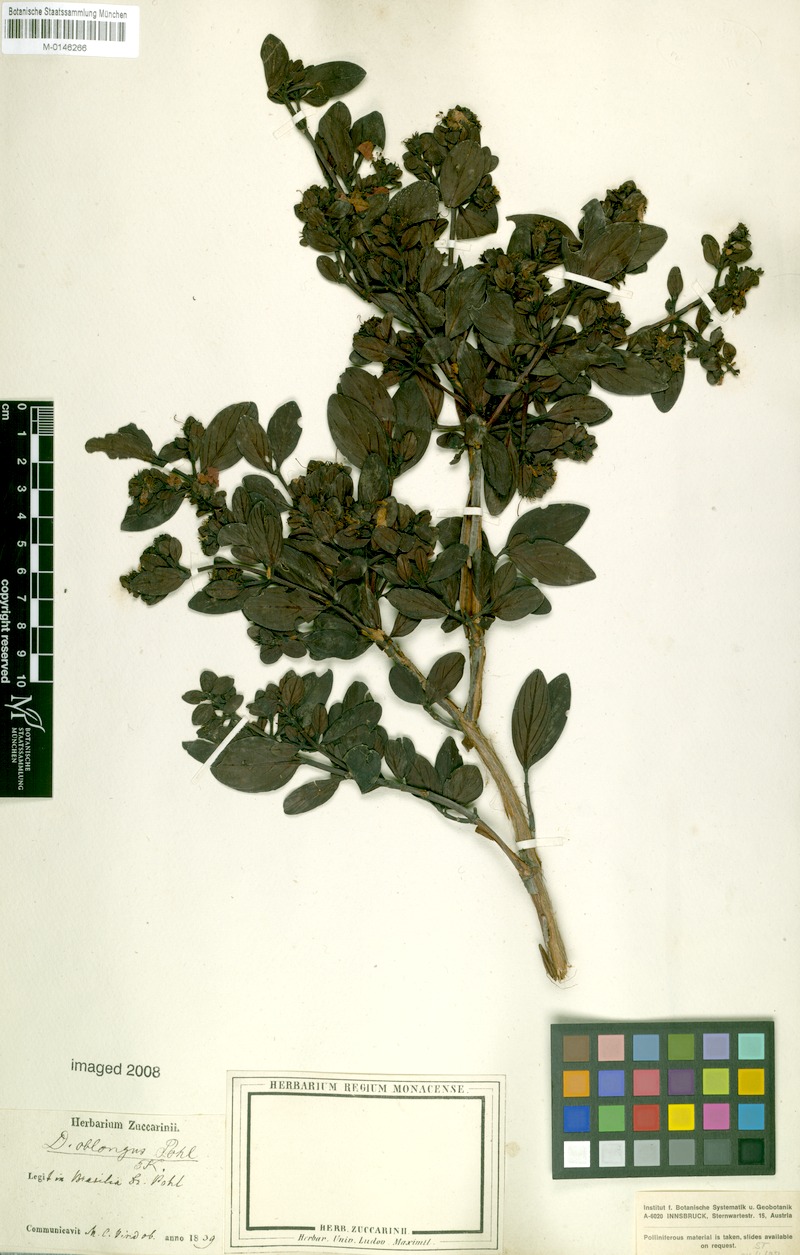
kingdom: Plantae
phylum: Tracheophyta
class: Magnoliopsida
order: Myrtales
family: Lythraceae
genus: Diplusodon
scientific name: Diplusodon oblongus
